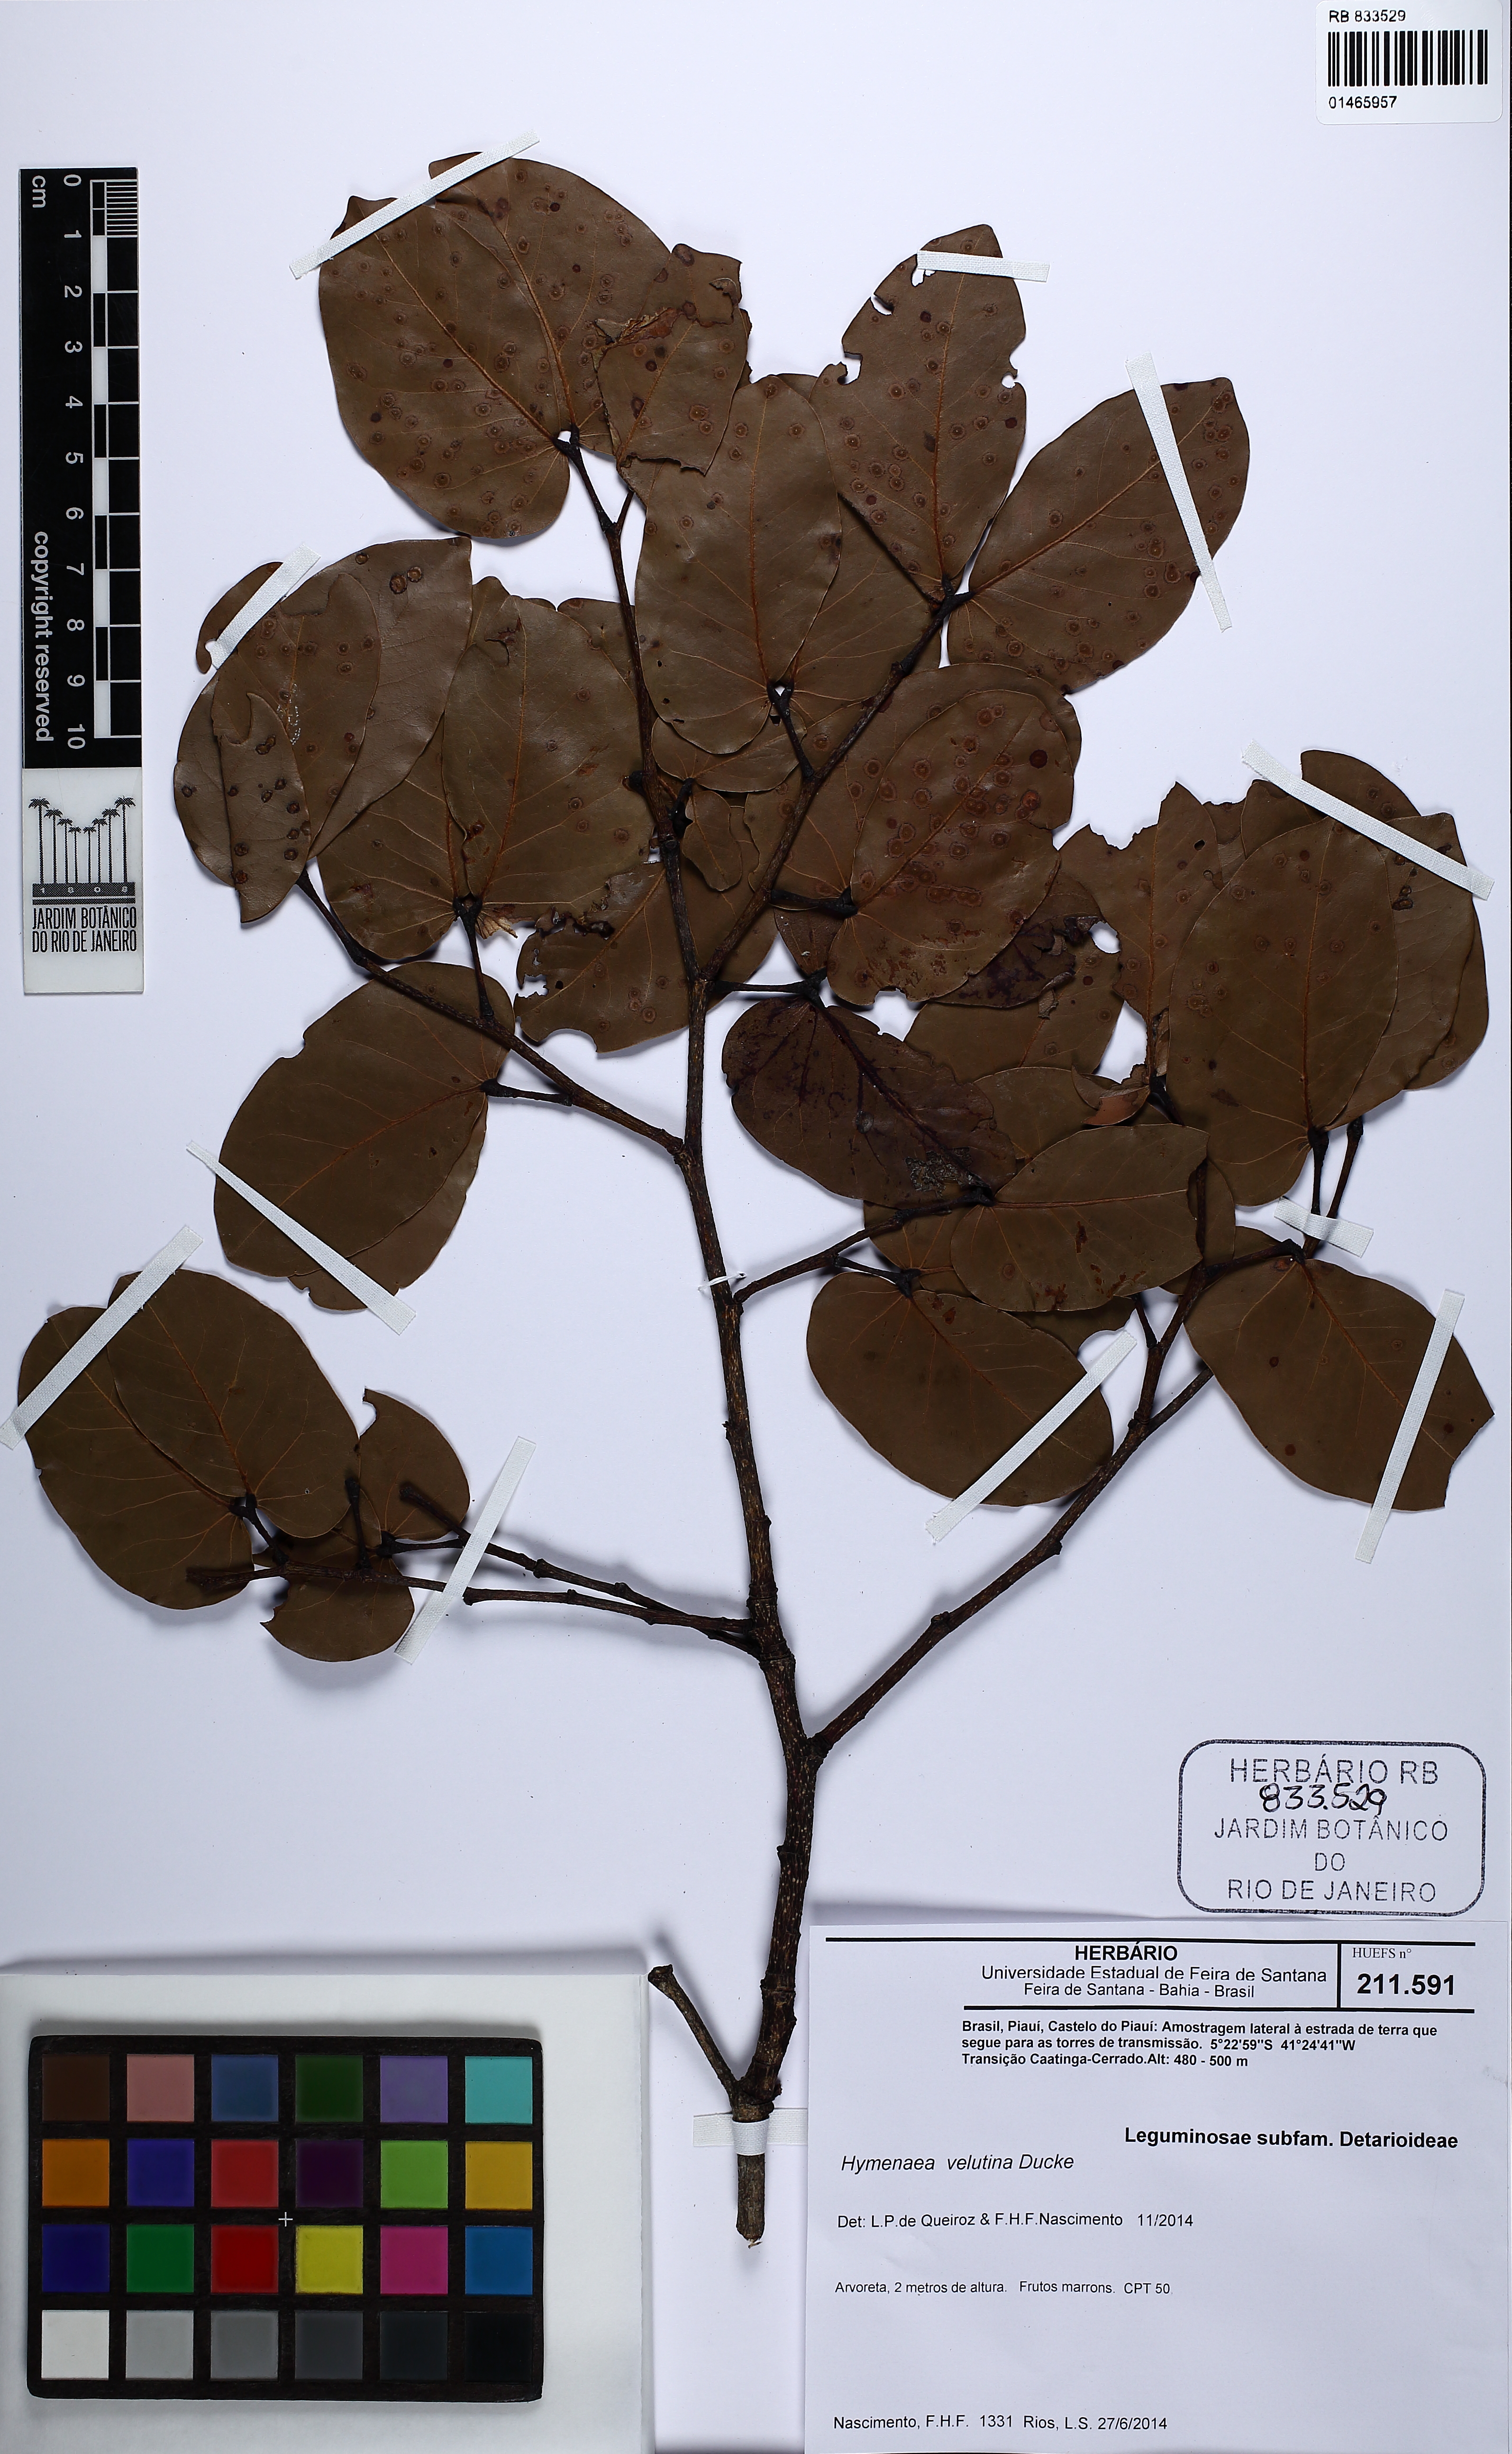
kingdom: Plantae
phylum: Tracheophyta
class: Magnoliopsida
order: Fabales
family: Fabaceae
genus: Hymenaea
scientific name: Hymenaea velutina
